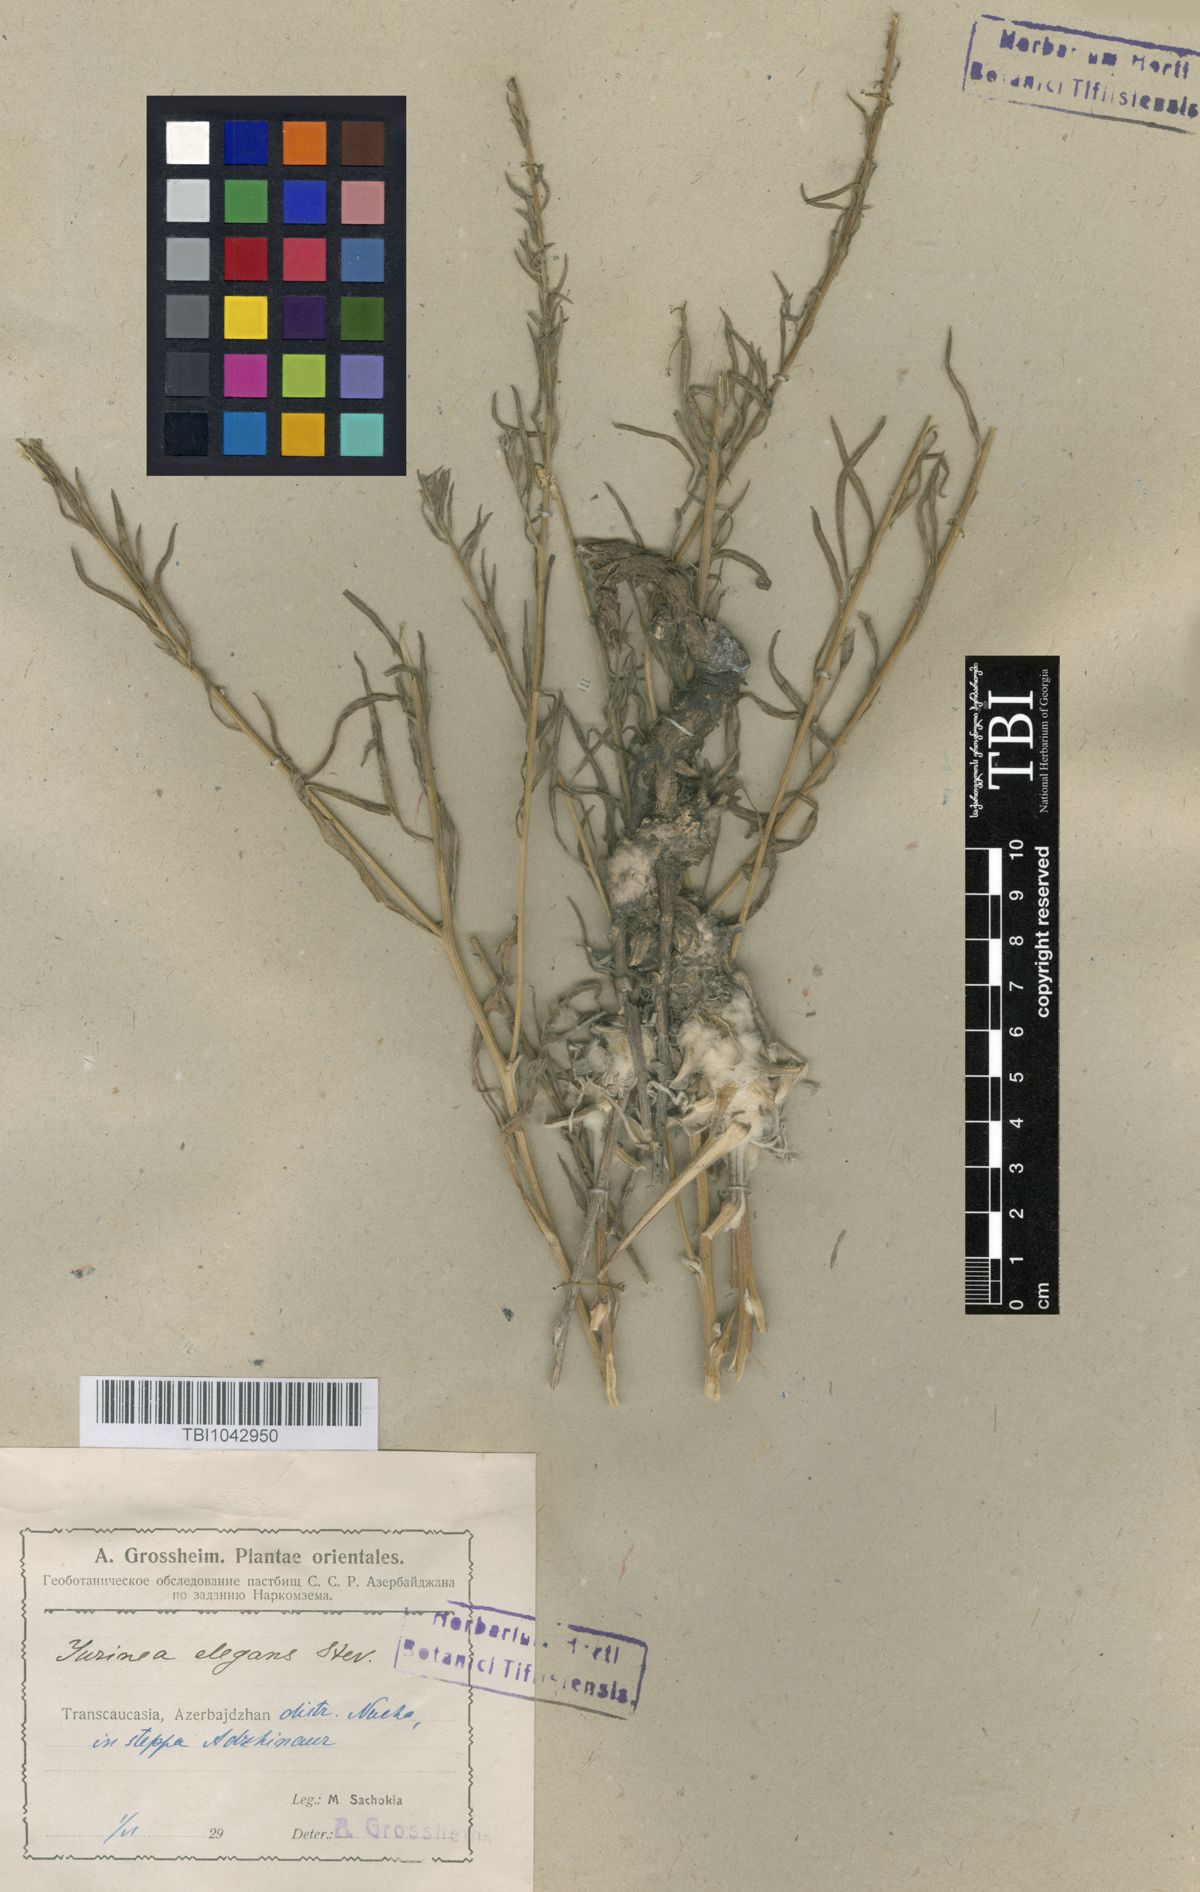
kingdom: Plantae
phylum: Tracheophyta
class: Magnoliopsida
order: Asterales
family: Asteraceae
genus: Jurinea
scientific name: Jurinea elegans
